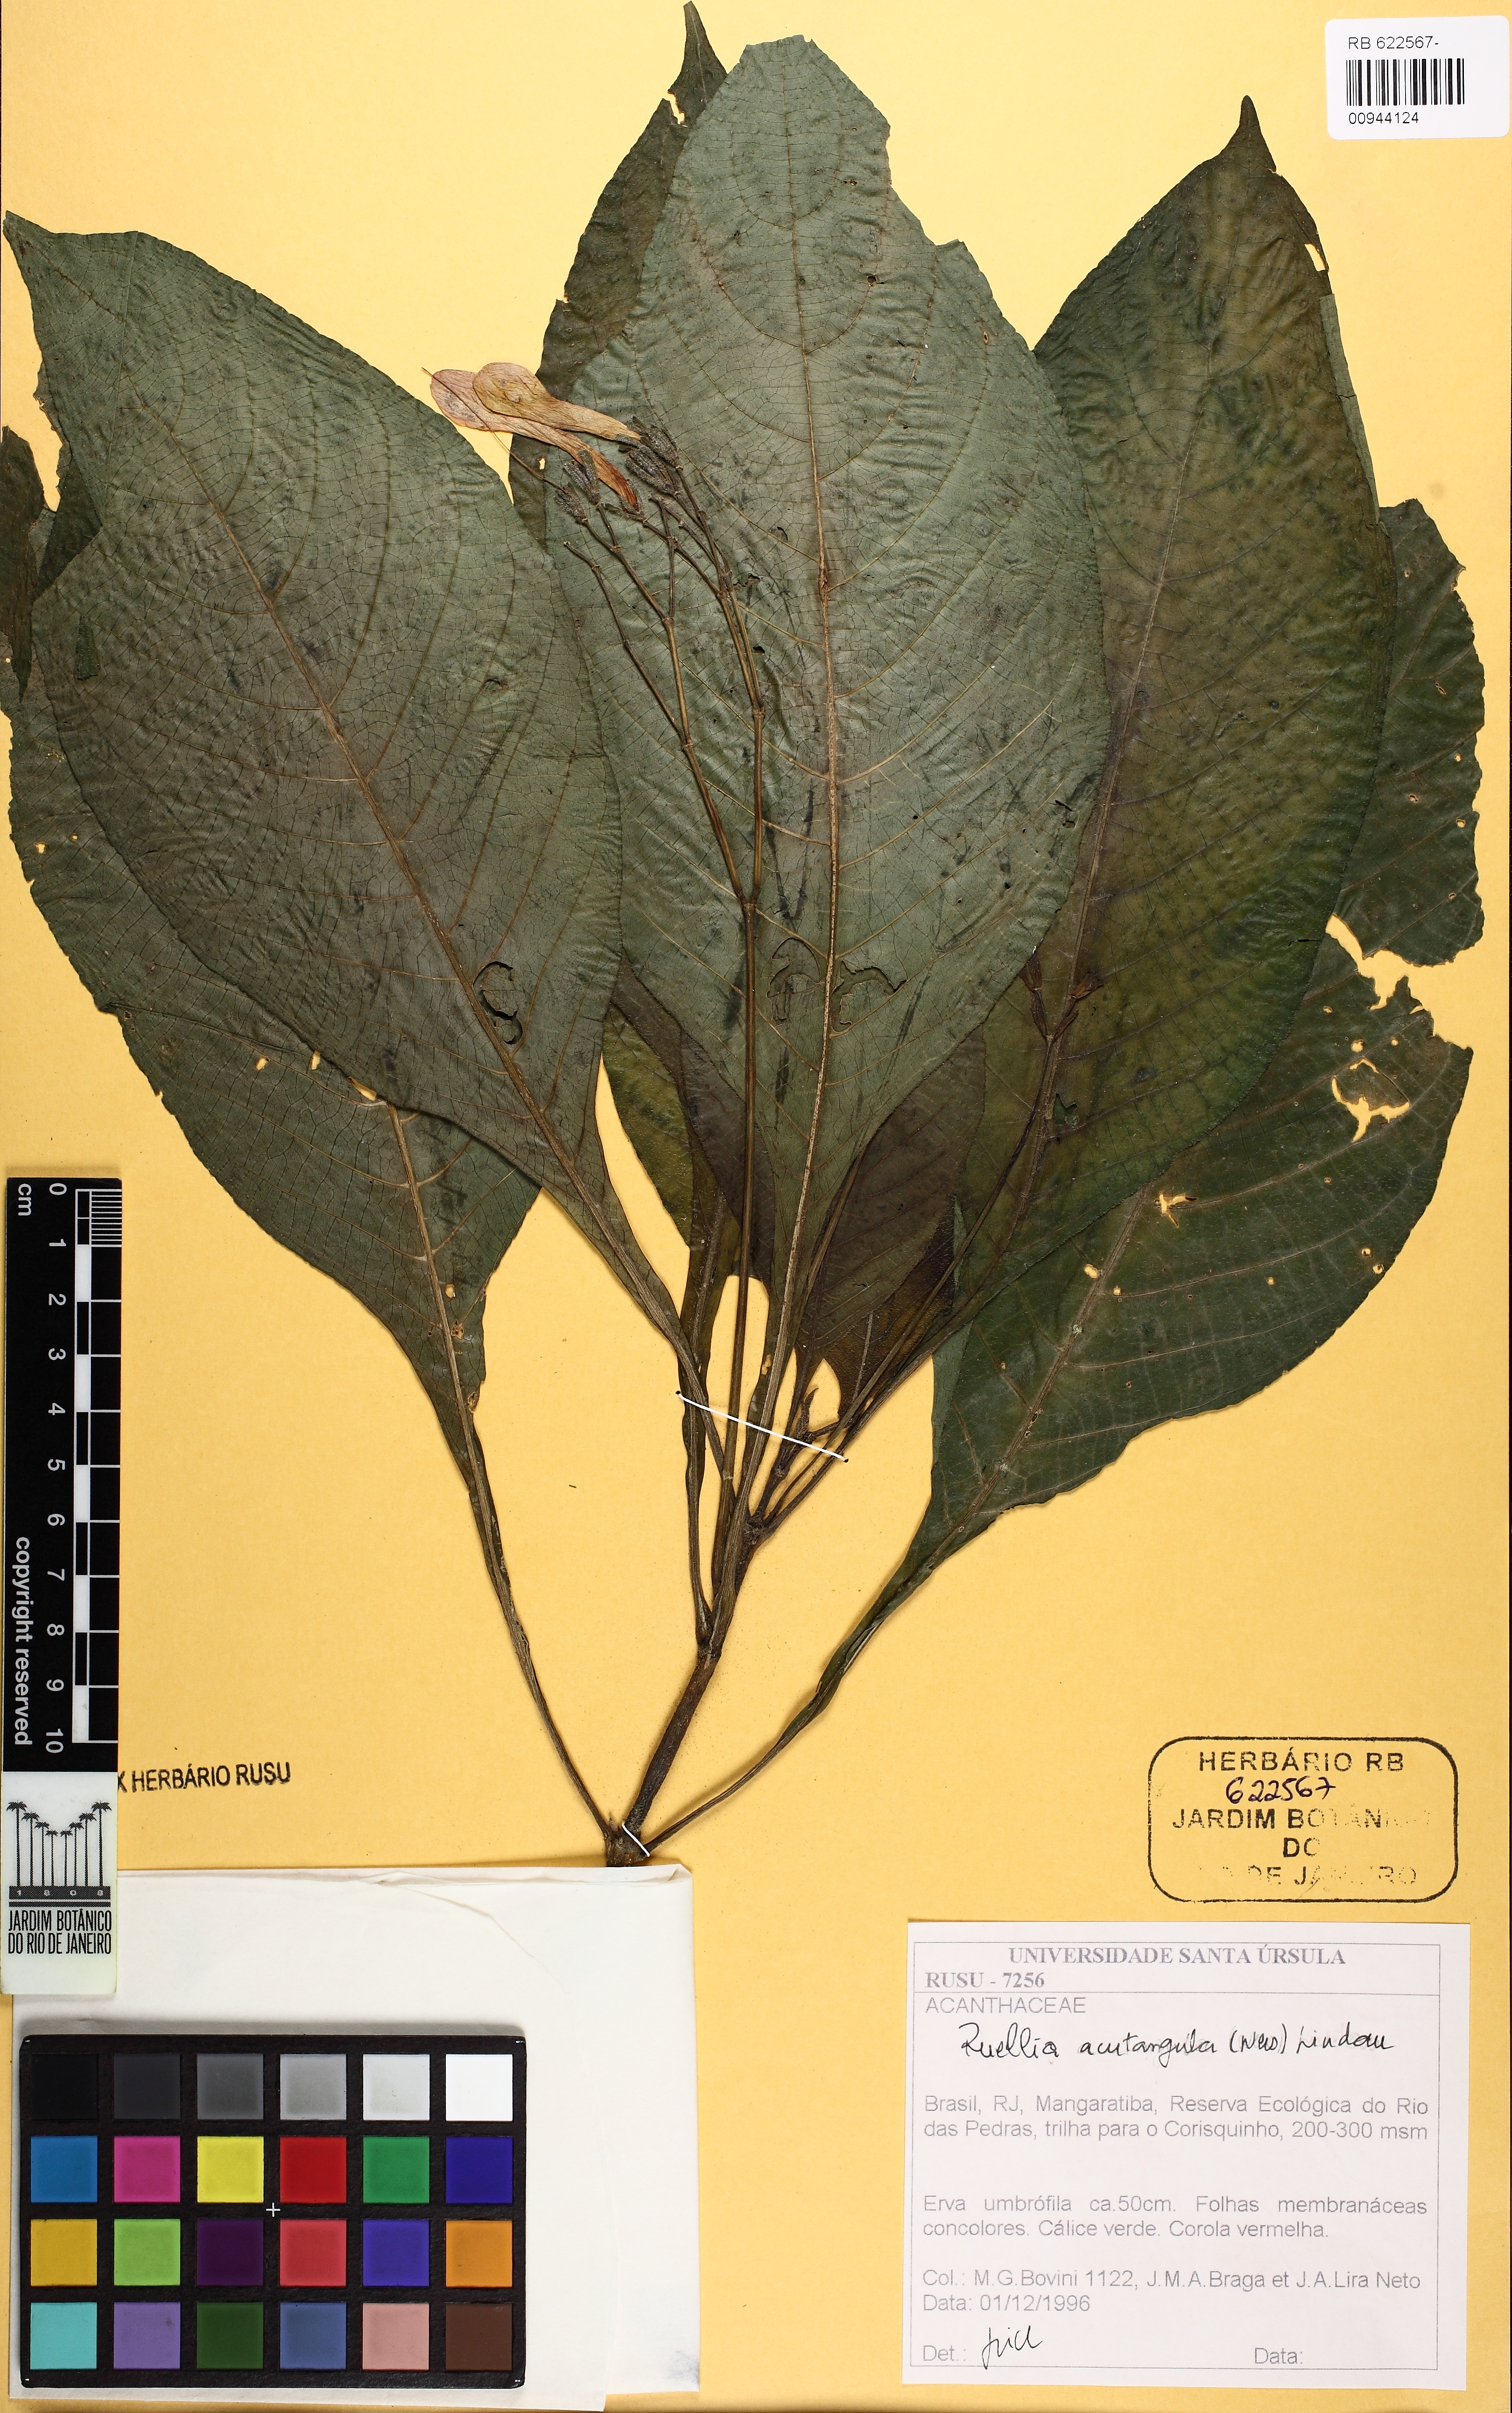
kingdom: Plantae
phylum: Tracheophyta
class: Magnoliopsida
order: Lamiales
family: Acanthaceae
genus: Ruellia
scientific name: Ruellia sceptrum-marianum
